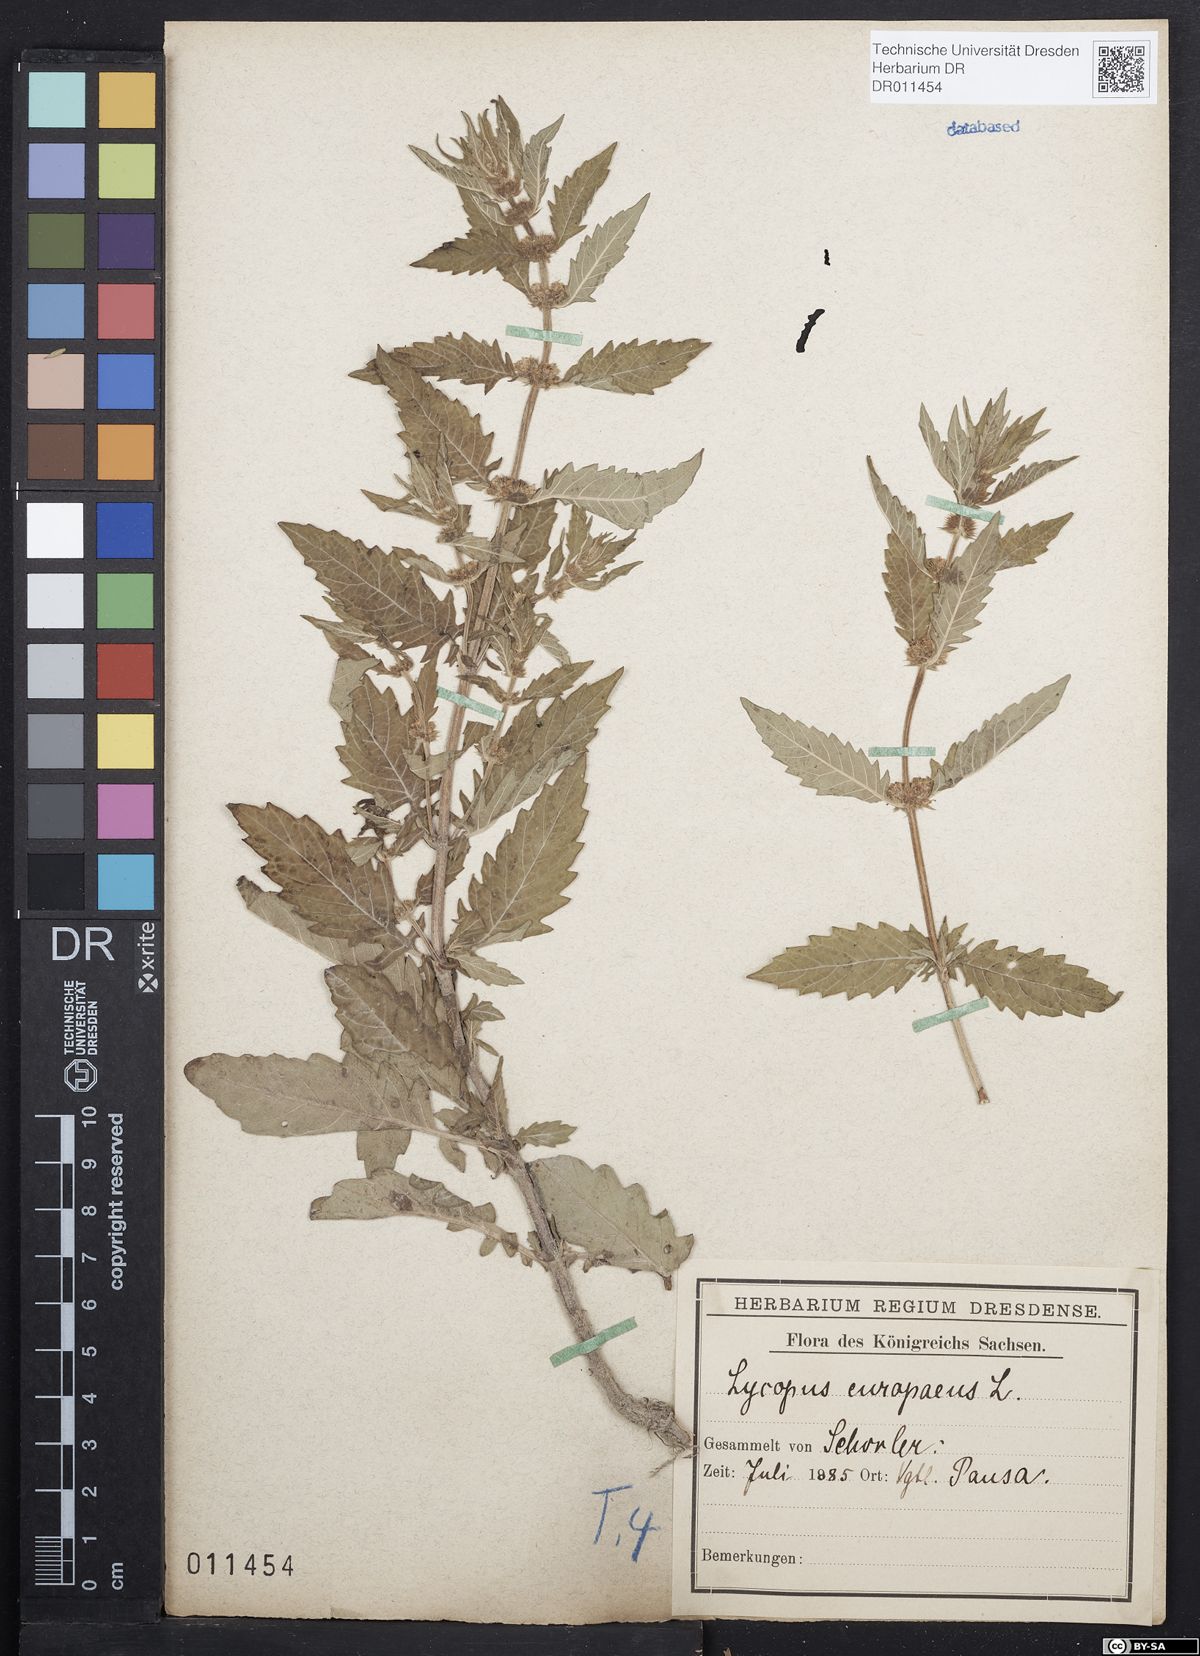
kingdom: Plantae
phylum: Tracheophyta
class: Magnoliopsida
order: Lamiales
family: Lamiaceae
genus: Lycopus
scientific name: Lycopus europaeus
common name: European bugleweed
